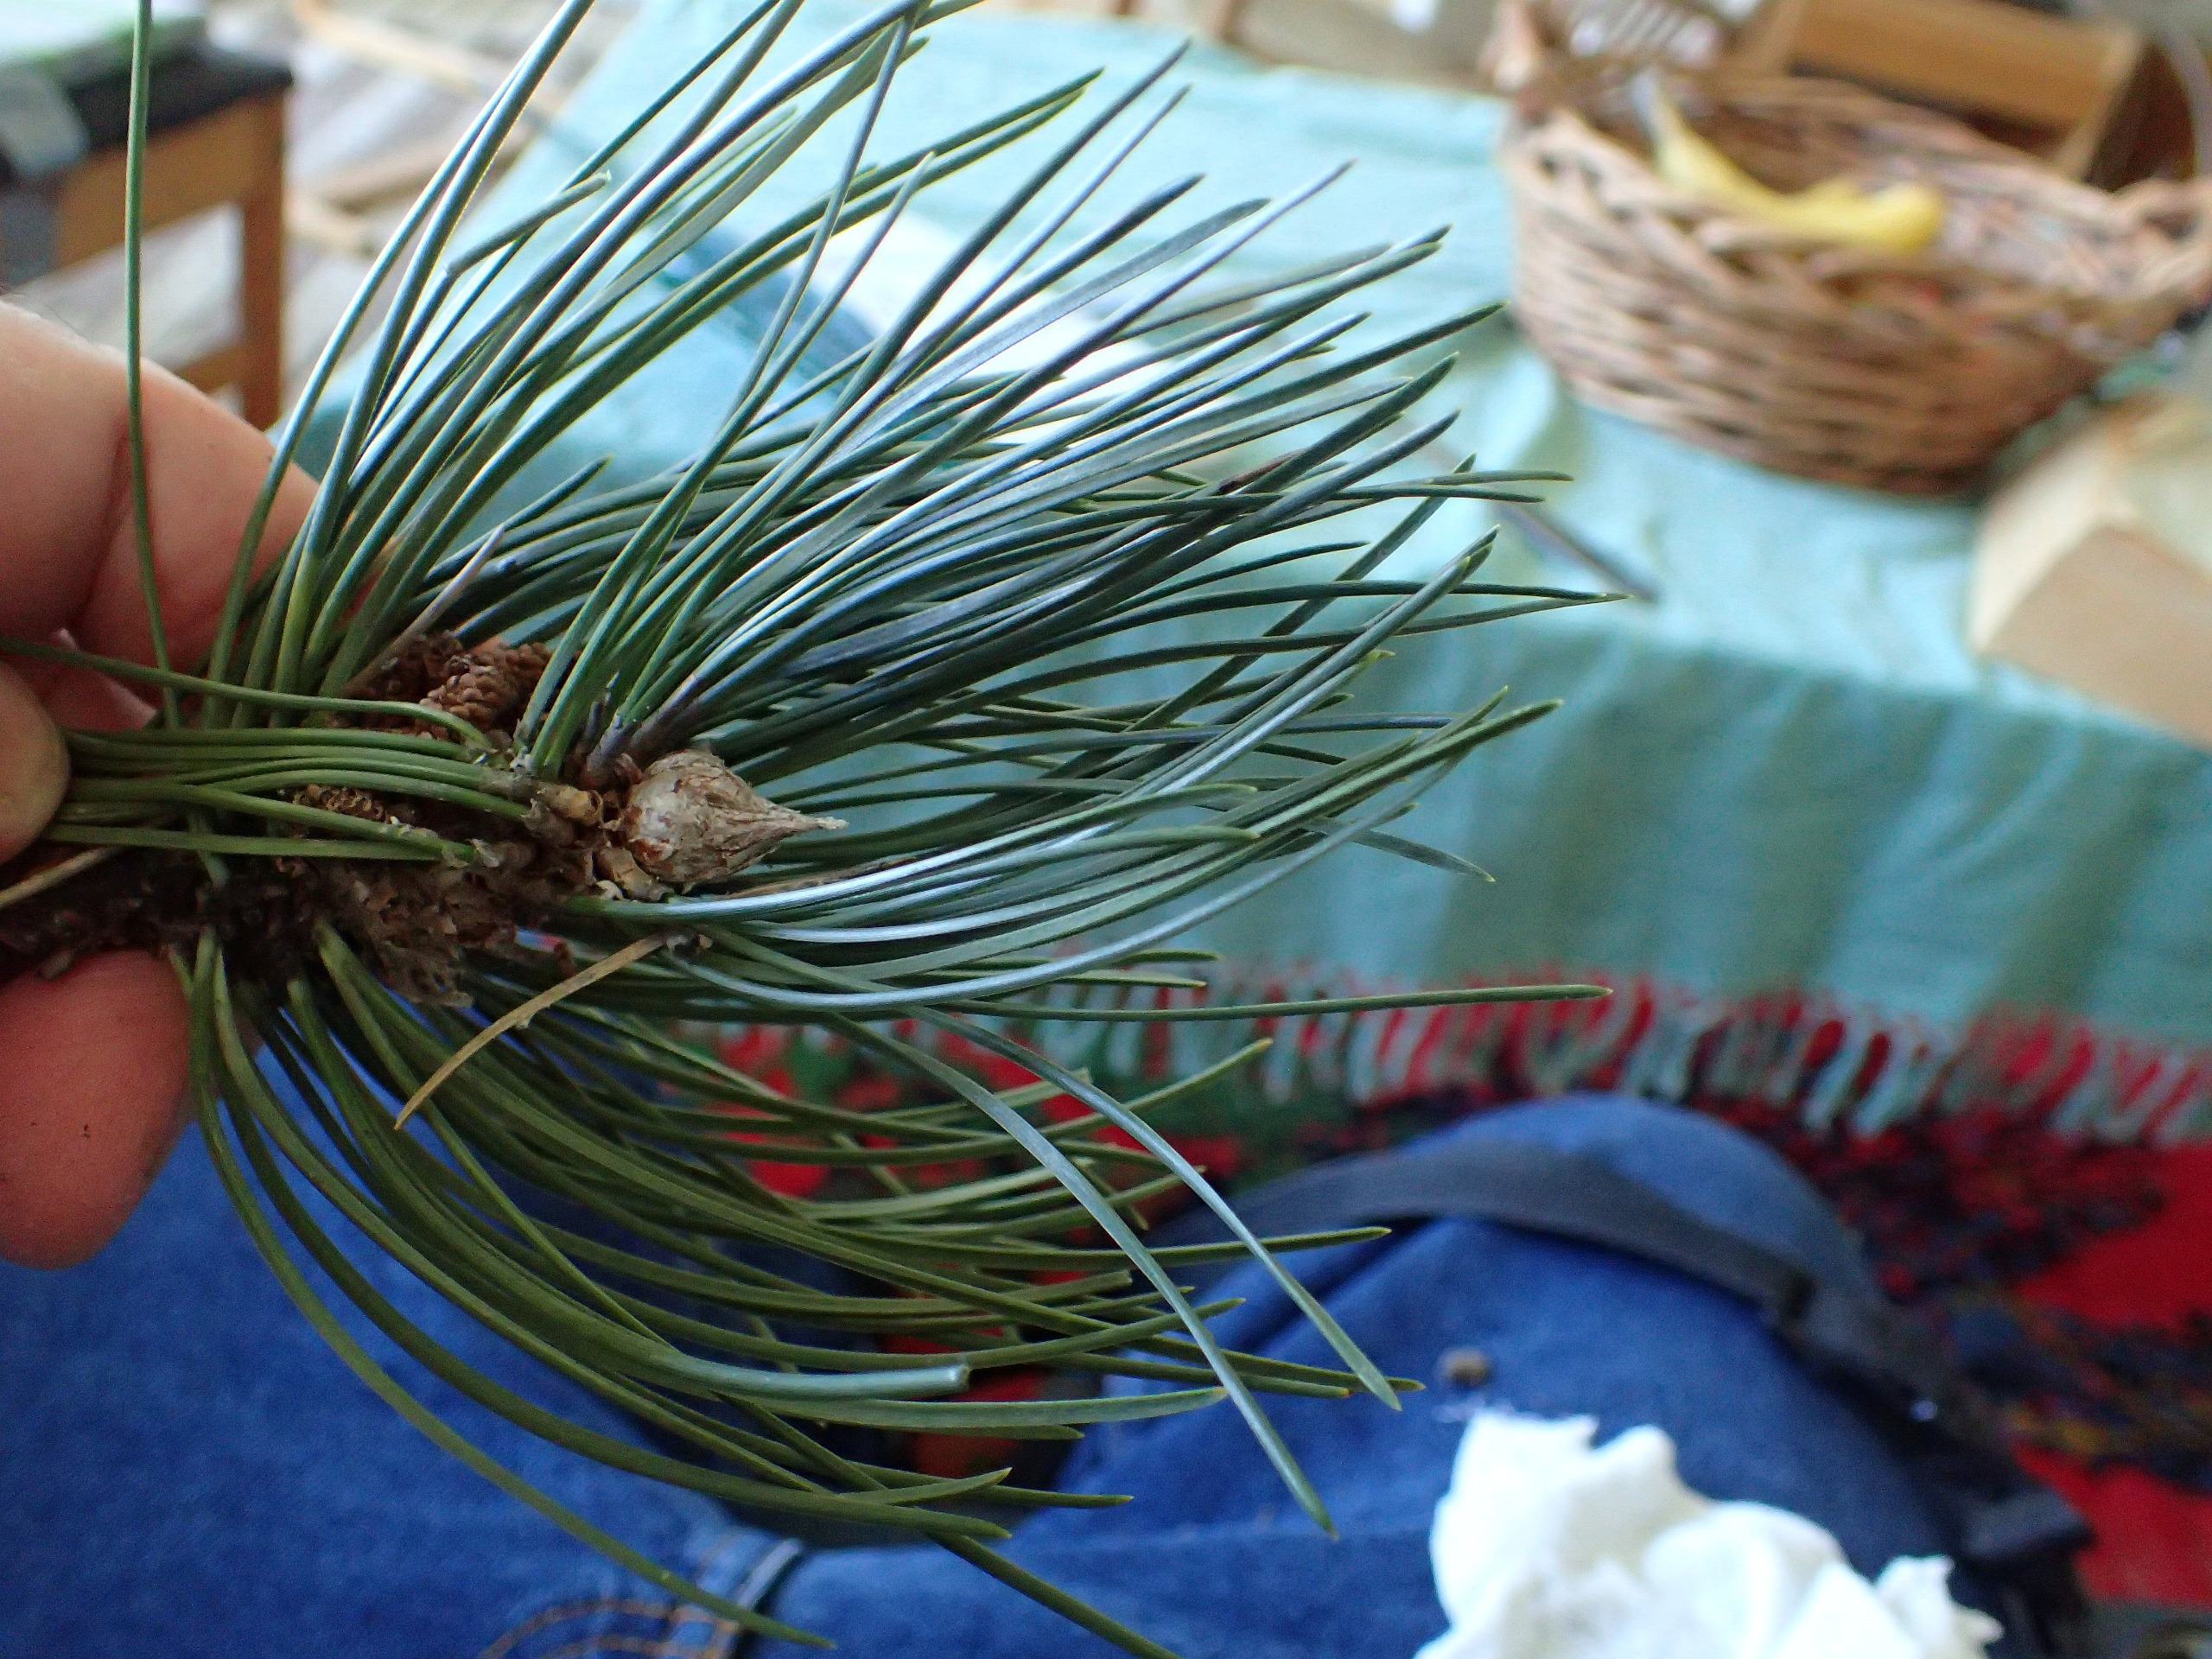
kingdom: Plantae
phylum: Tracheophyta
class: Pinopsida
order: Pinales
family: Pinaceae
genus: Pinus
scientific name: Pinus nigra
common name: Østrigsk fyr
